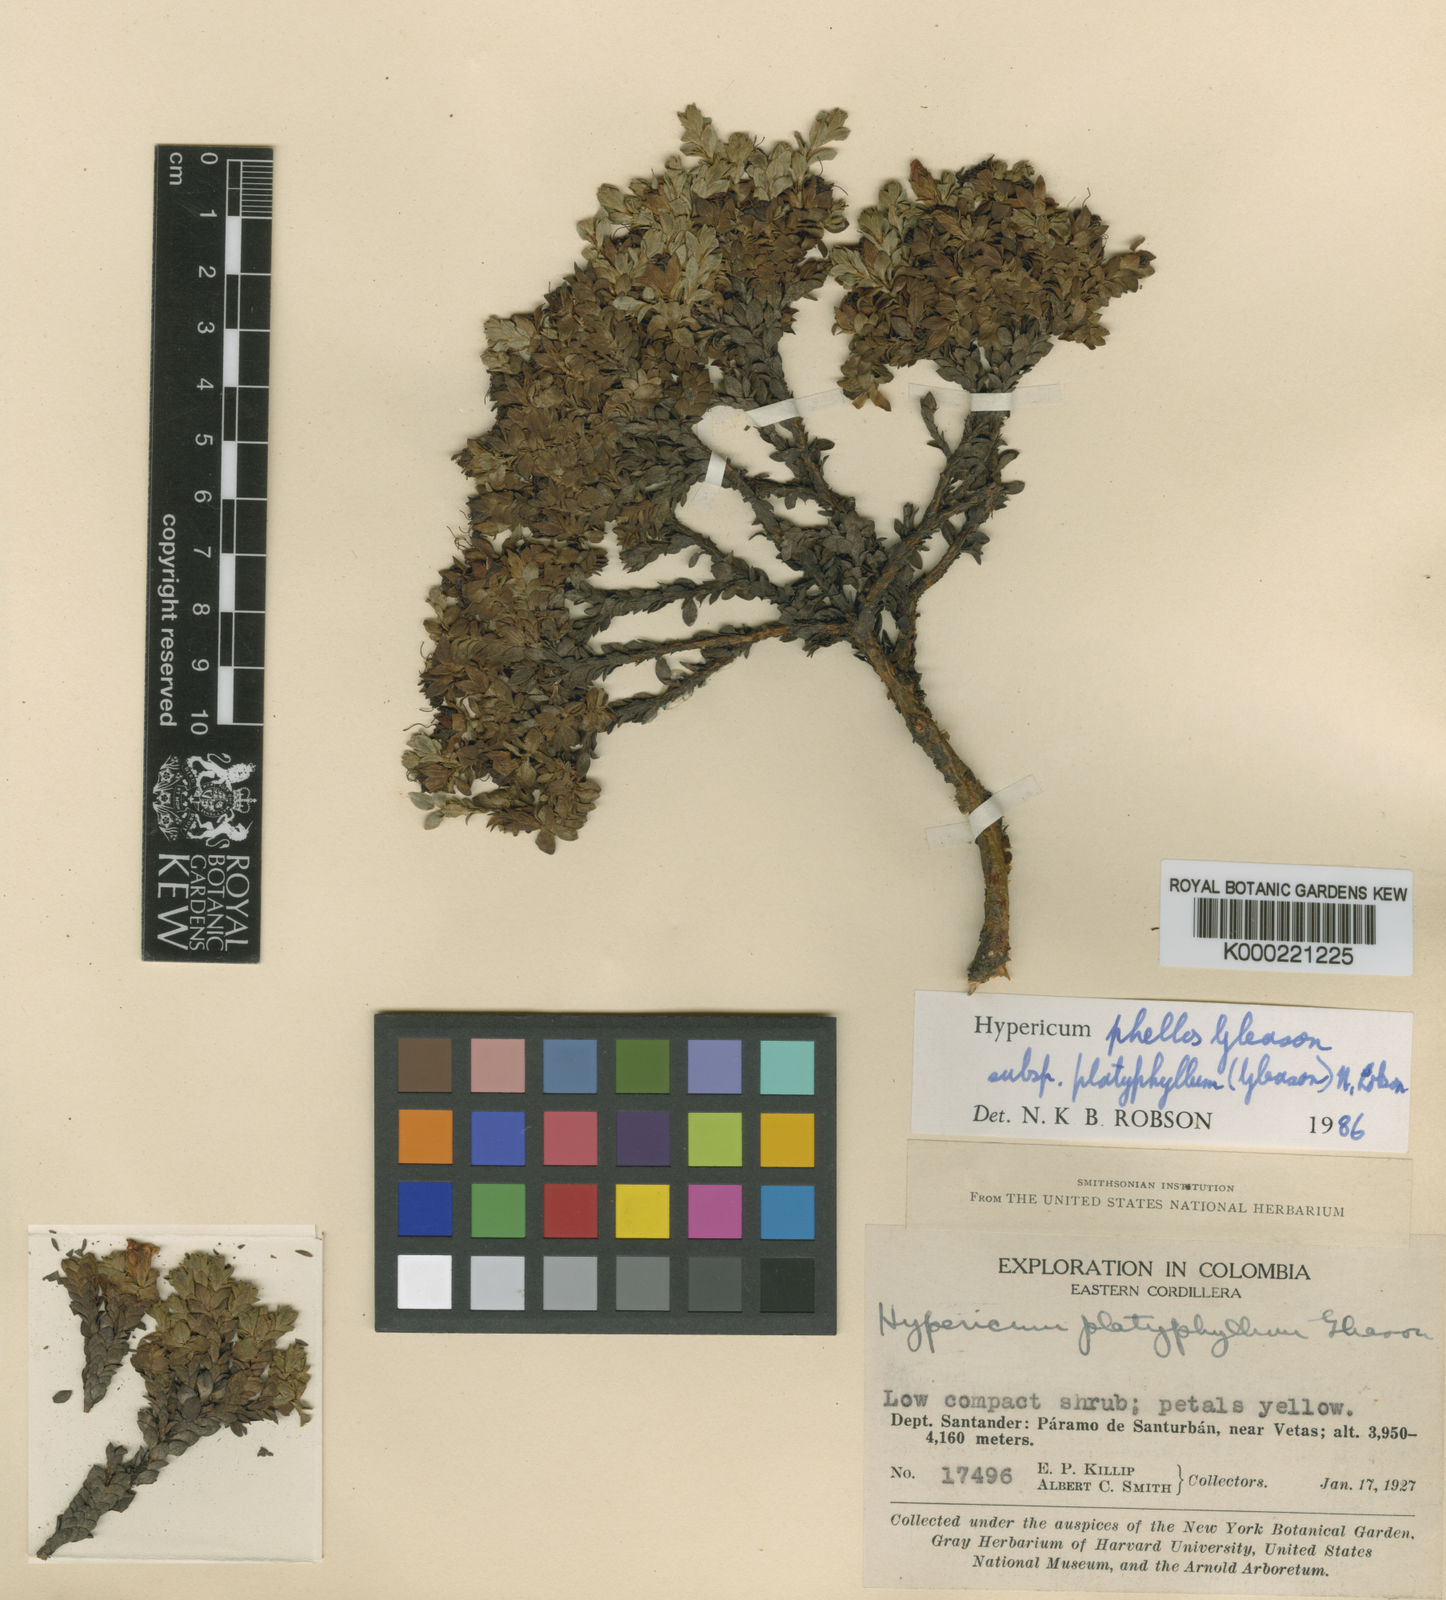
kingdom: Plantae
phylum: Tracheophyta
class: Magnoliopsida
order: Malpighiales
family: Hypericaceae
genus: Hypericum
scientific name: Hypericum phellos
